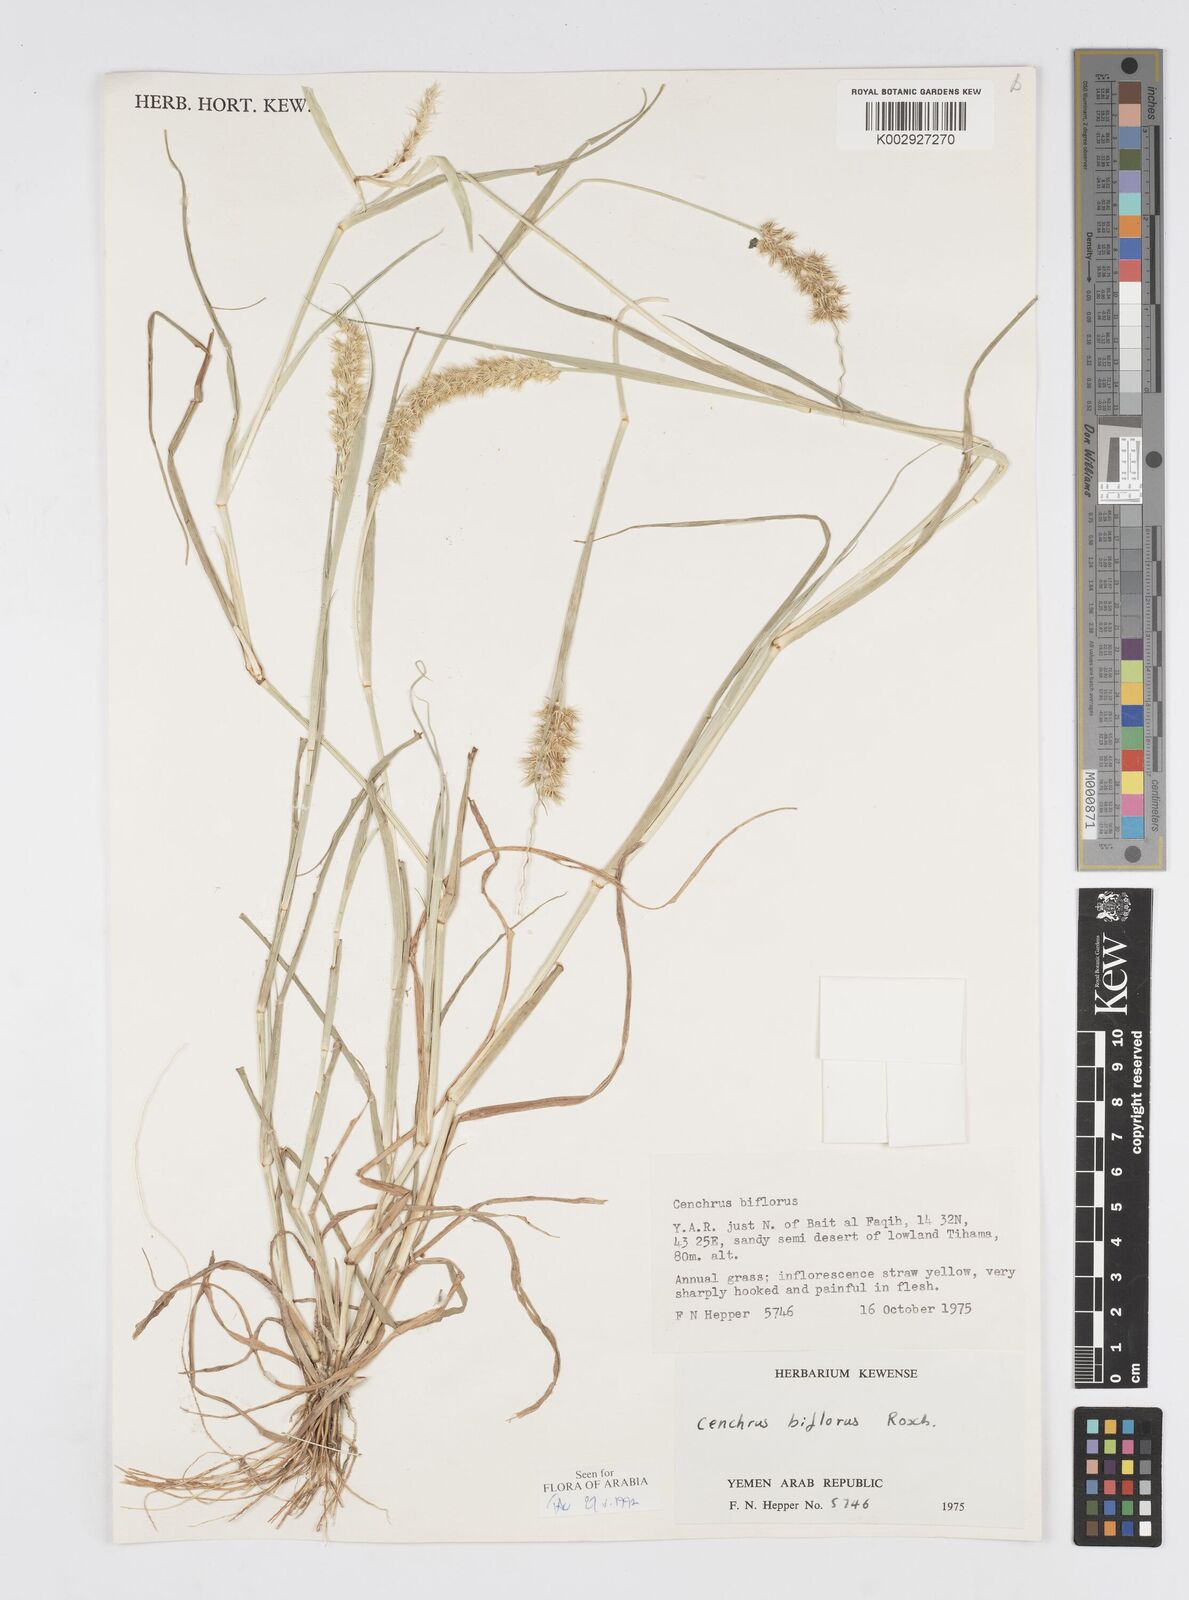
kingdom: Plantae
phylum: Tracheophyta
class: Liliopsida
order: Poales
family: Poaceae
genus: Cenchrus
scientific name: Cenchrus biflorus
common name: Indian sandbur
